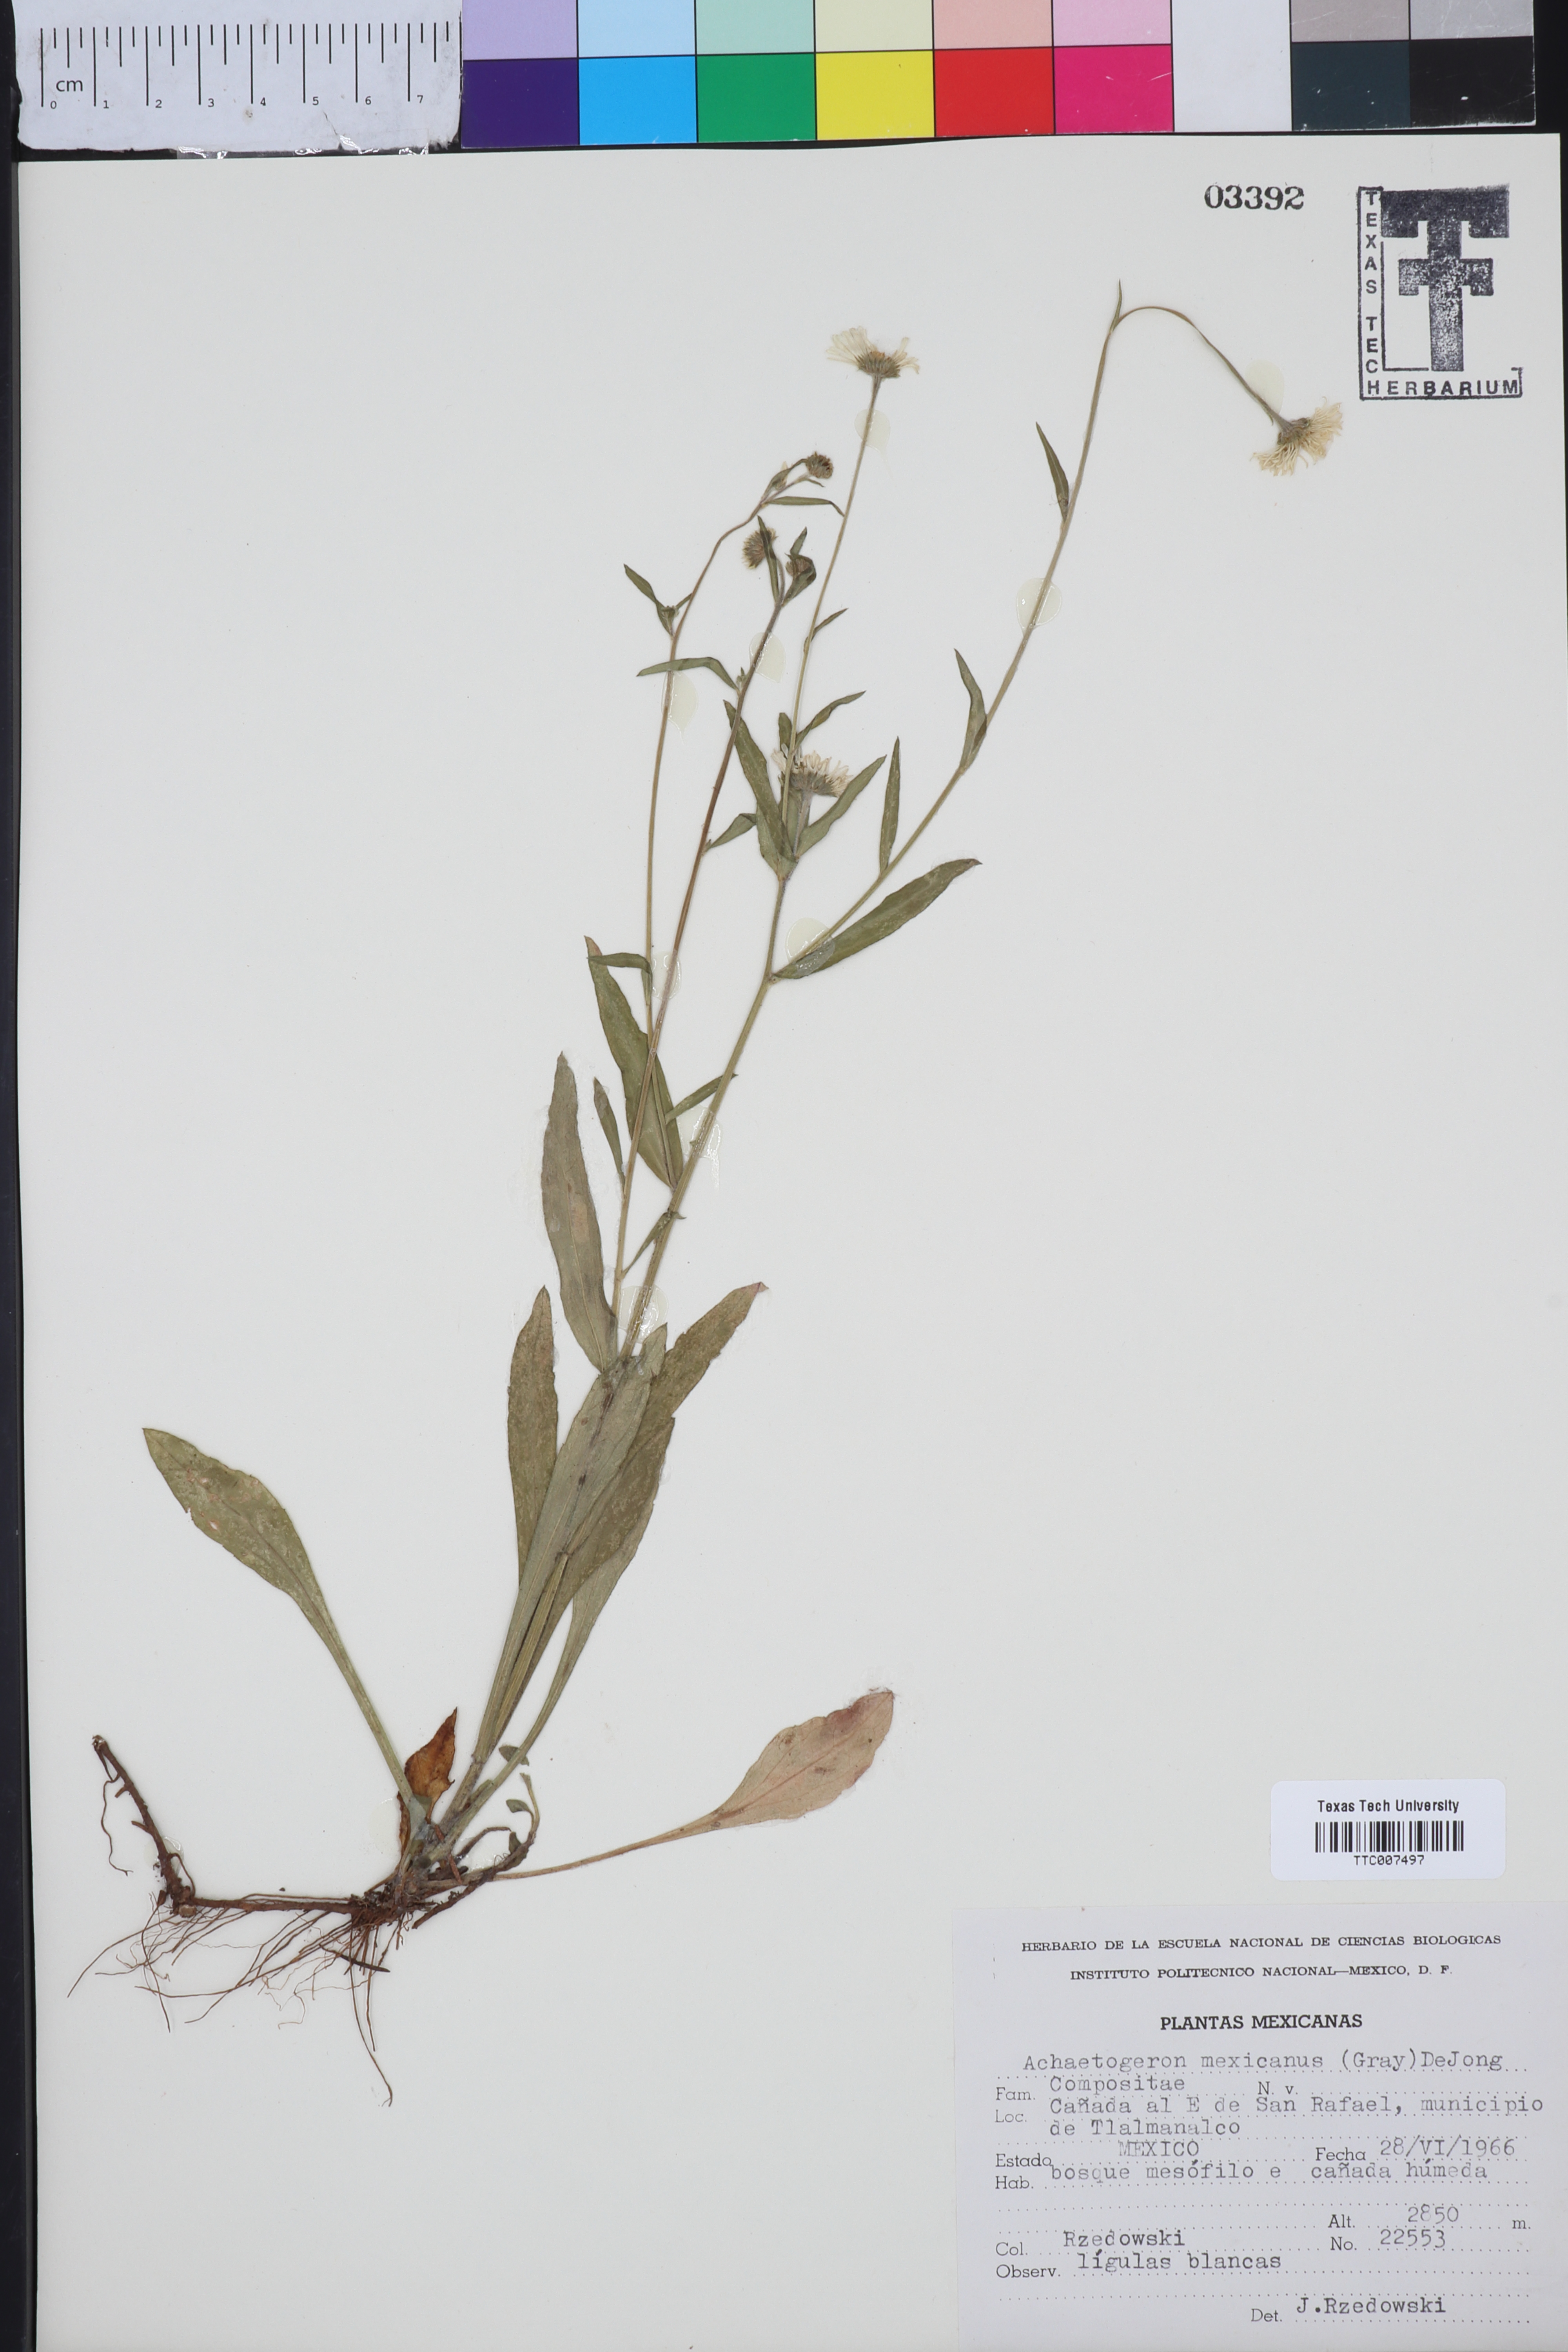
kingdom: Plantae
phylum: Tracheophyta
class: Magnoliopsida
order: Asterales
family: Asteraceae
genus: Erigeron
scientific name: Erigeron galeottii
